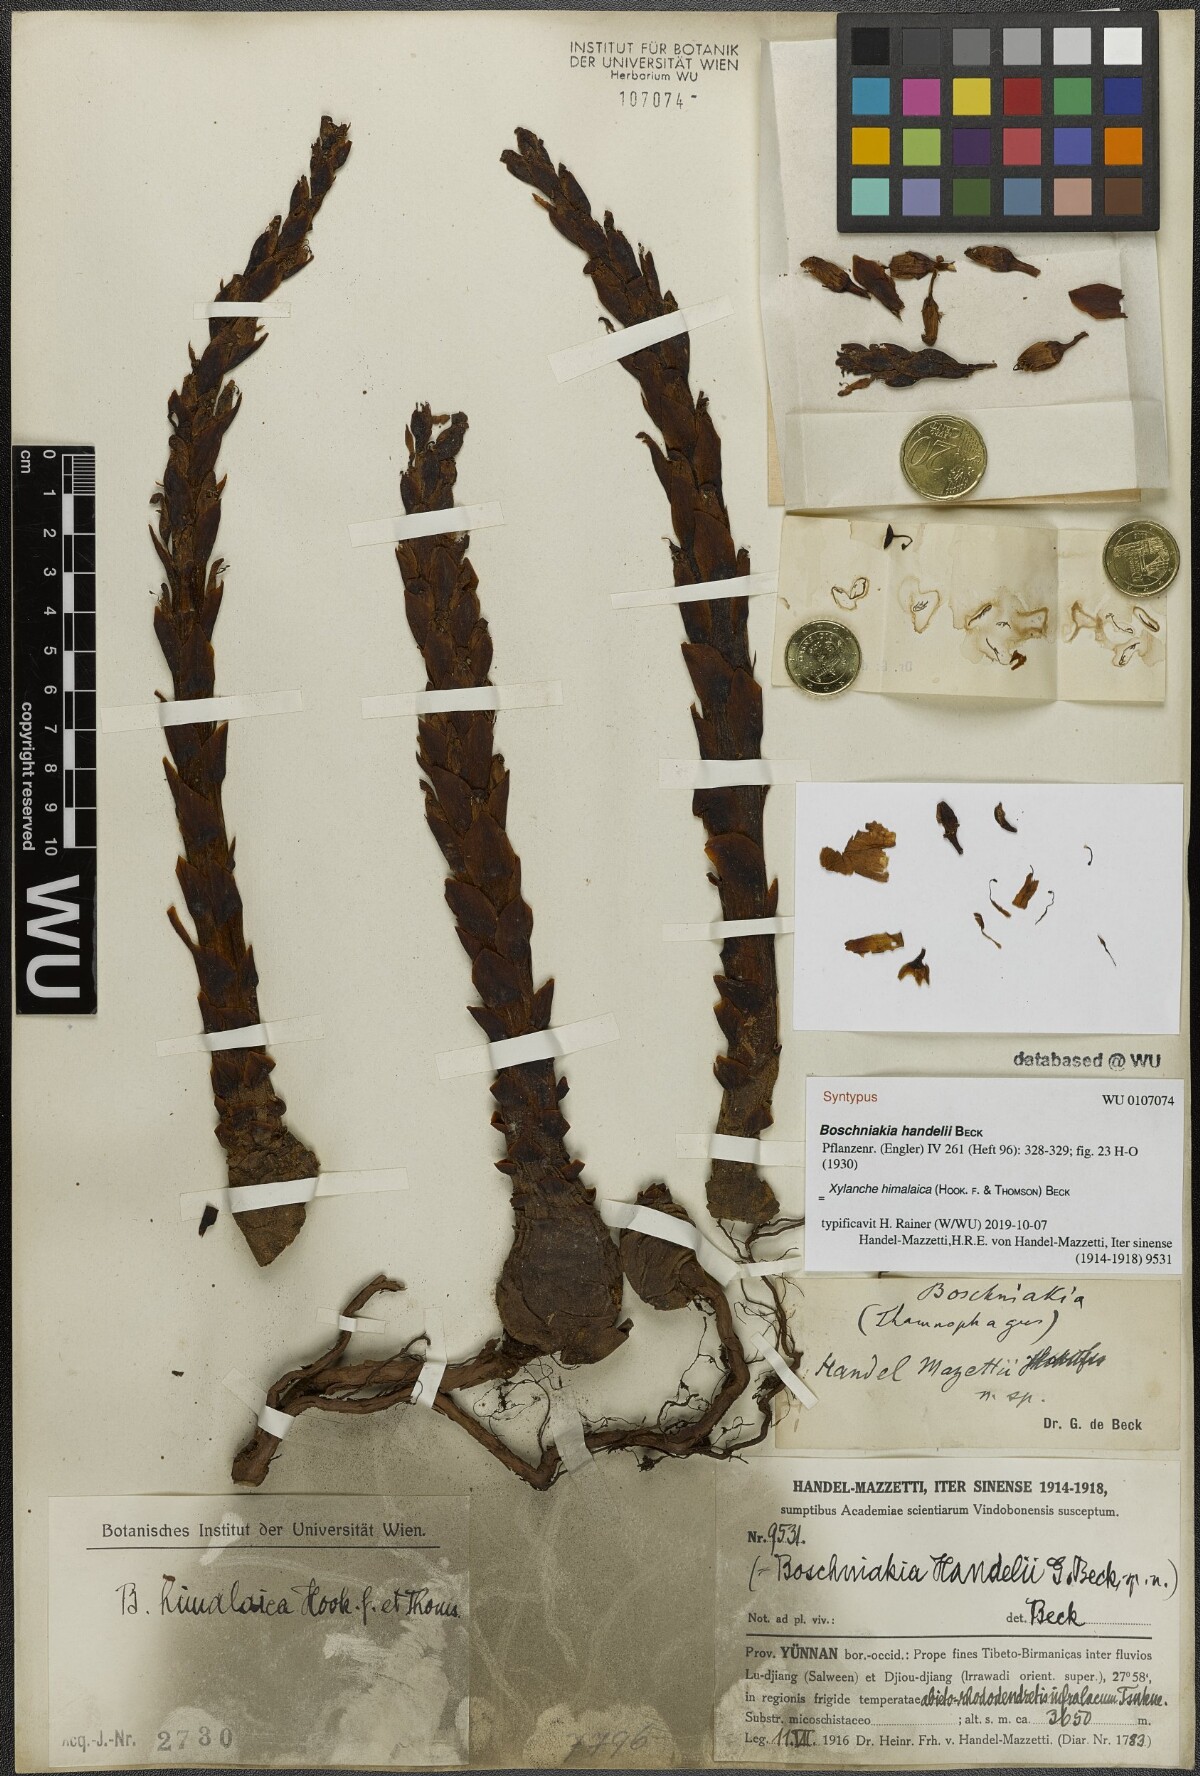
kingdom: Plantae
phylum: Tracheophyta
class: Magnoliopsida
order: Lamiales
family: Orobanchaceae
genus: Boschniakia
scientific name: Boschniakia himalaica
